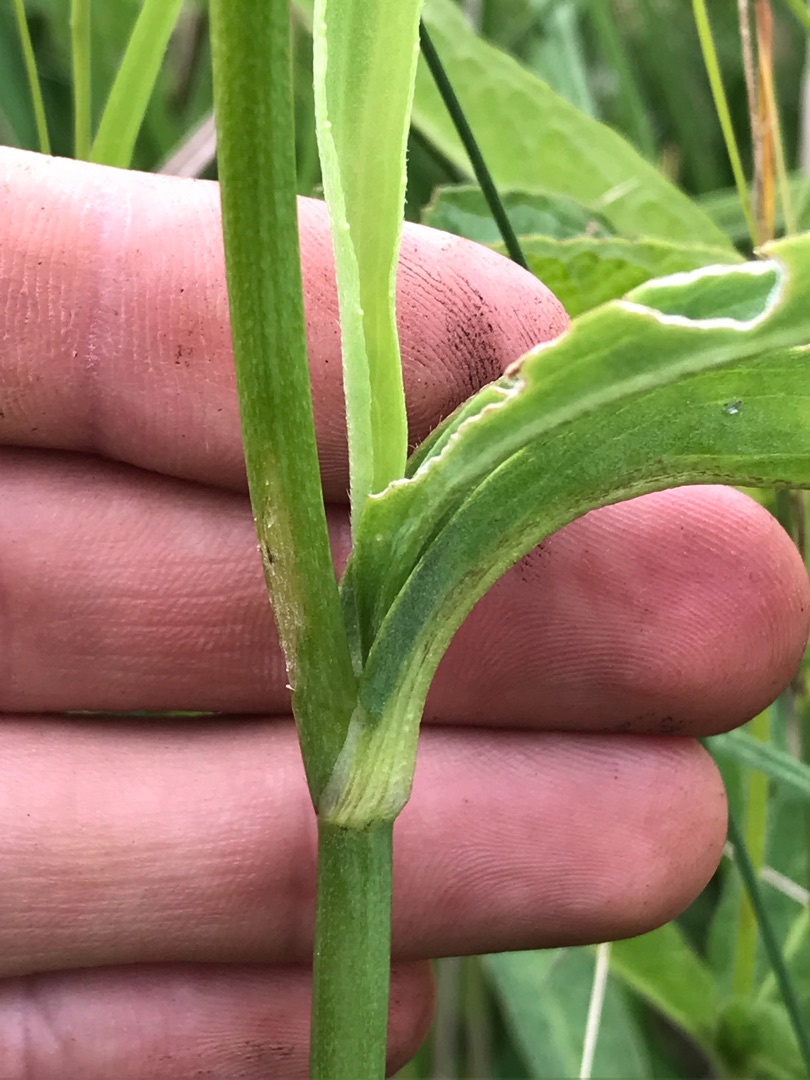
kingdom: Plantae
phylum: Tracheophyta
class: Magnoliopsida
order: Ranunculales
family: Ranunculaceae
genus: Ranunculus
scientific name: Ranunculus lingua
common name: Langbladet ranunkel
